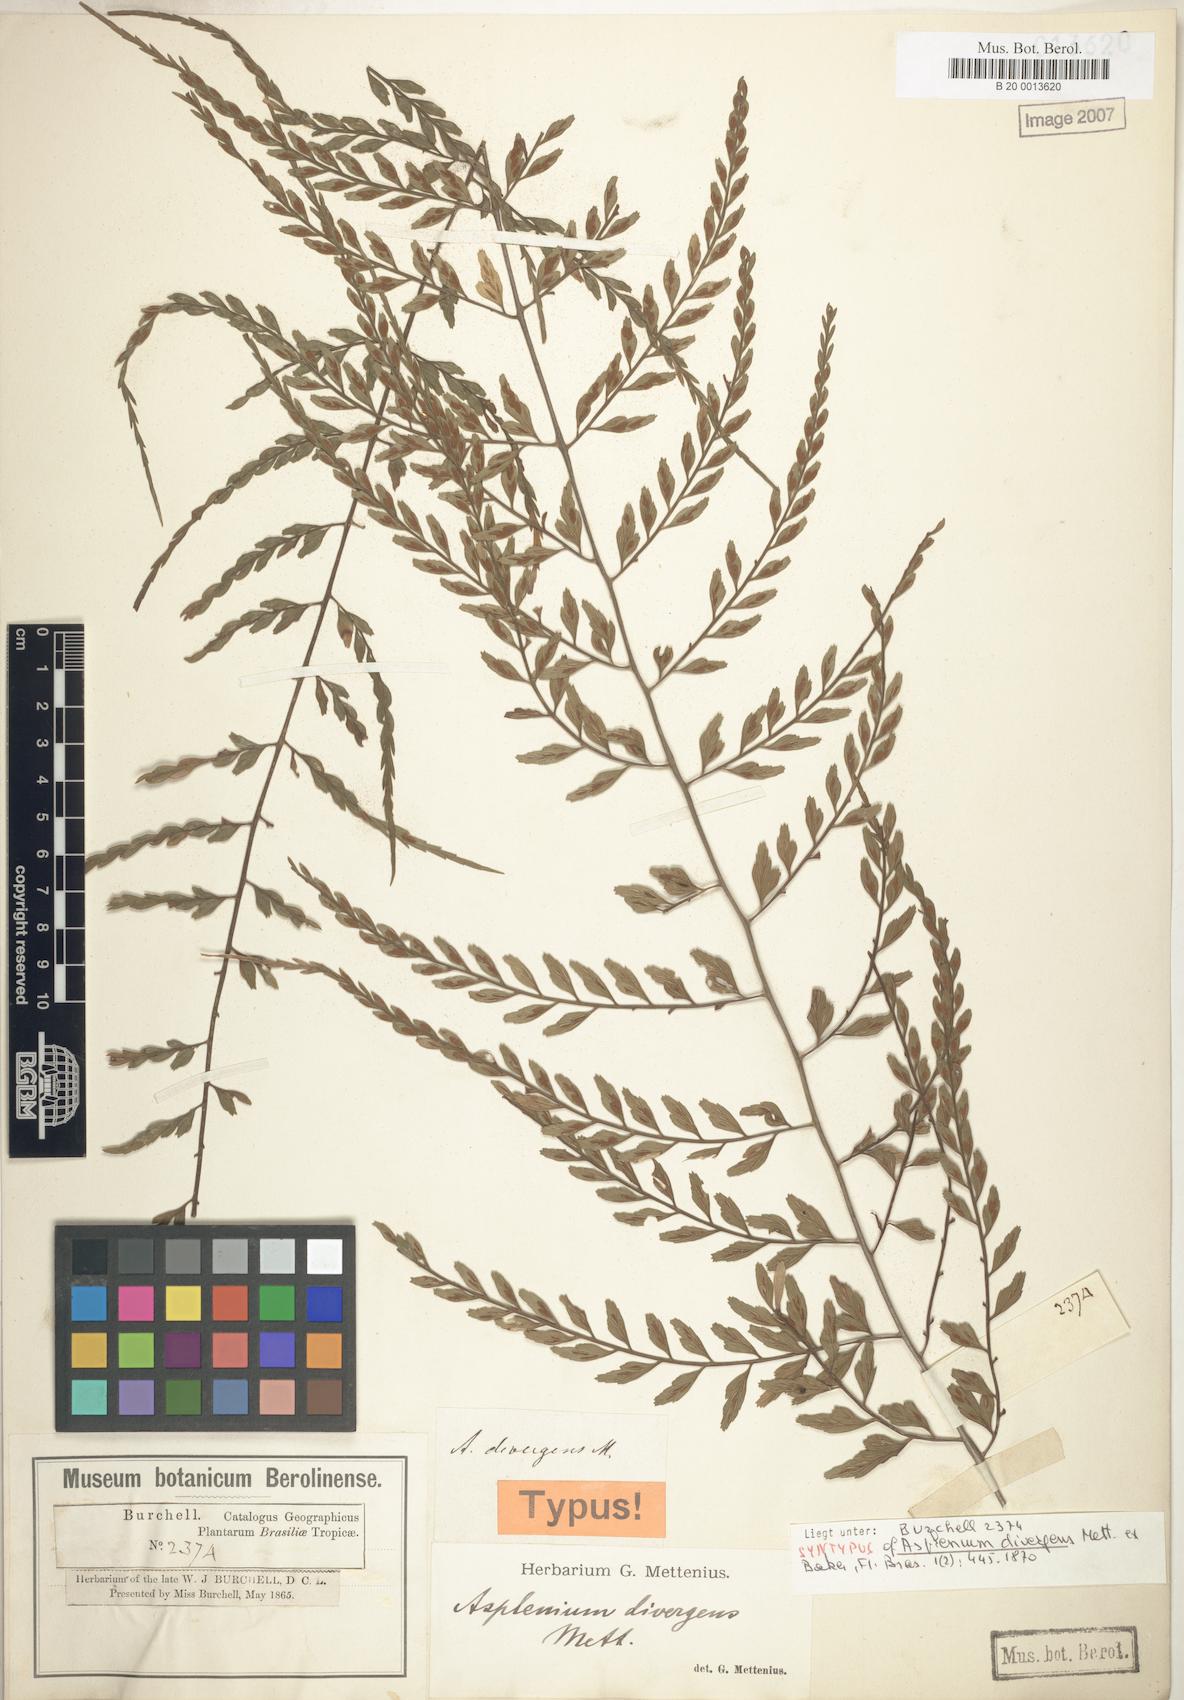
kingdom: Plantae
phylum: Tracheophyta
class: Polypodiopsida
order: Polypodiales
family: Aspleniaceae
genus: Asplenium
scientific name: Asplenium gastonis
